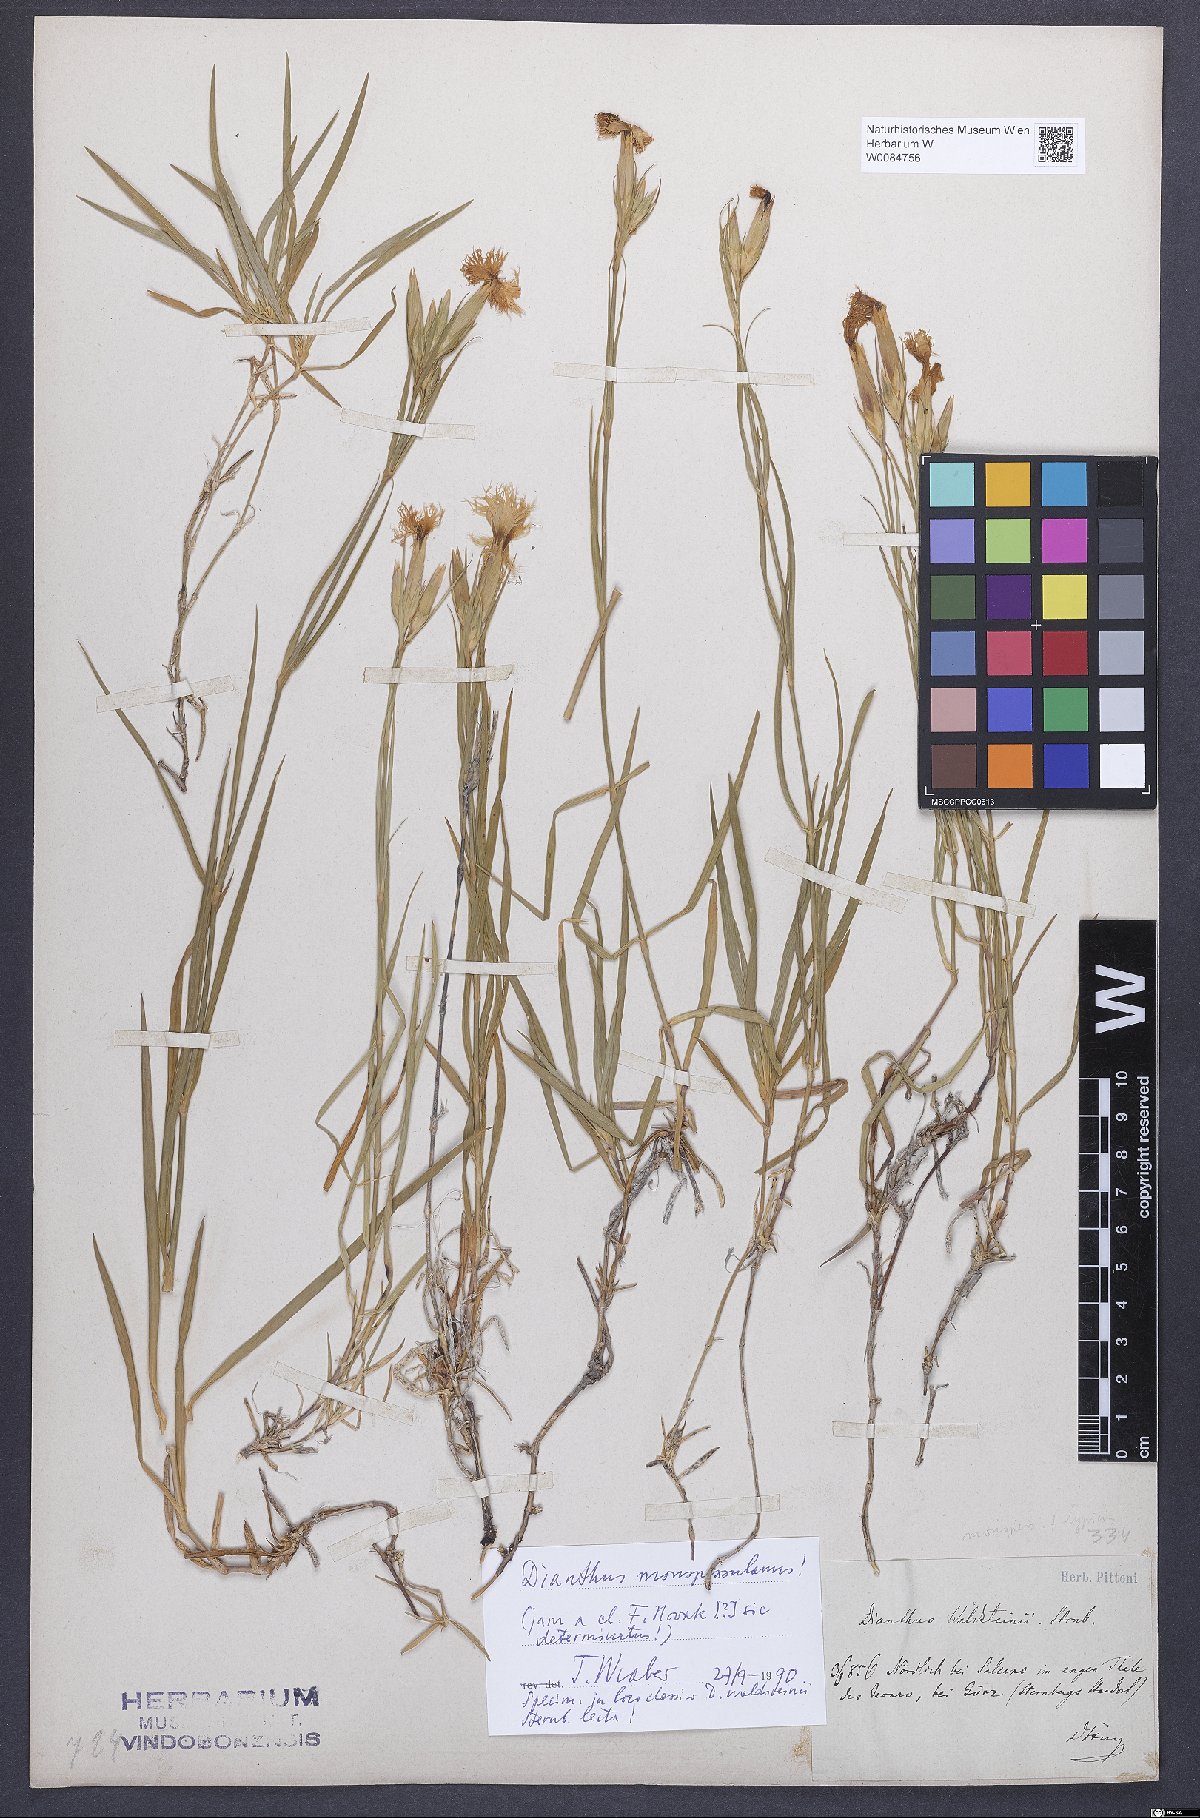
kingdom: Plantae
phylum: Tracheophyta
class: Magnoliopsida
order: Caryophyllales
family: Caryophyllaceae
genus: Dianthus
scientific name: Dianthus monspessulanus
